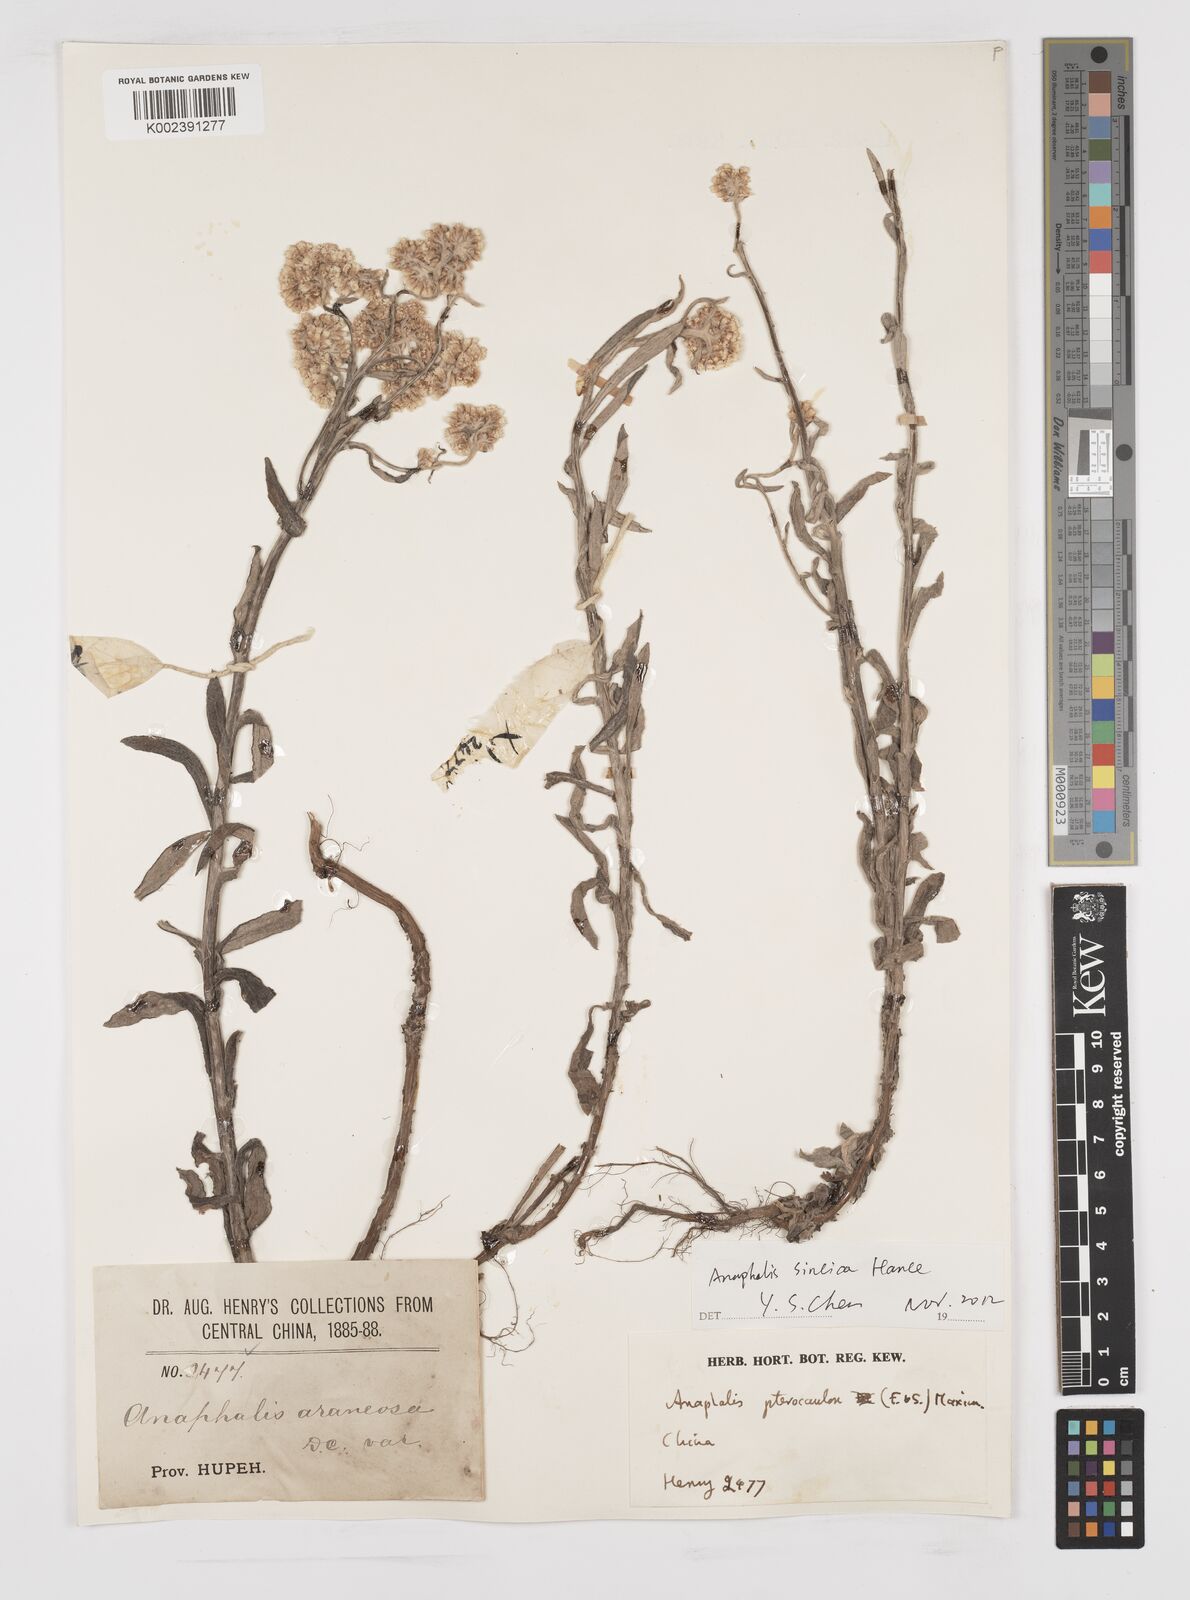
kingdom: Plantae
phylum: Tracheophyta
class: Magnoliopsida
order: Asterales
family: Asteraceae
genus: Anaphalis
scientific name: Anaphalis sinica
